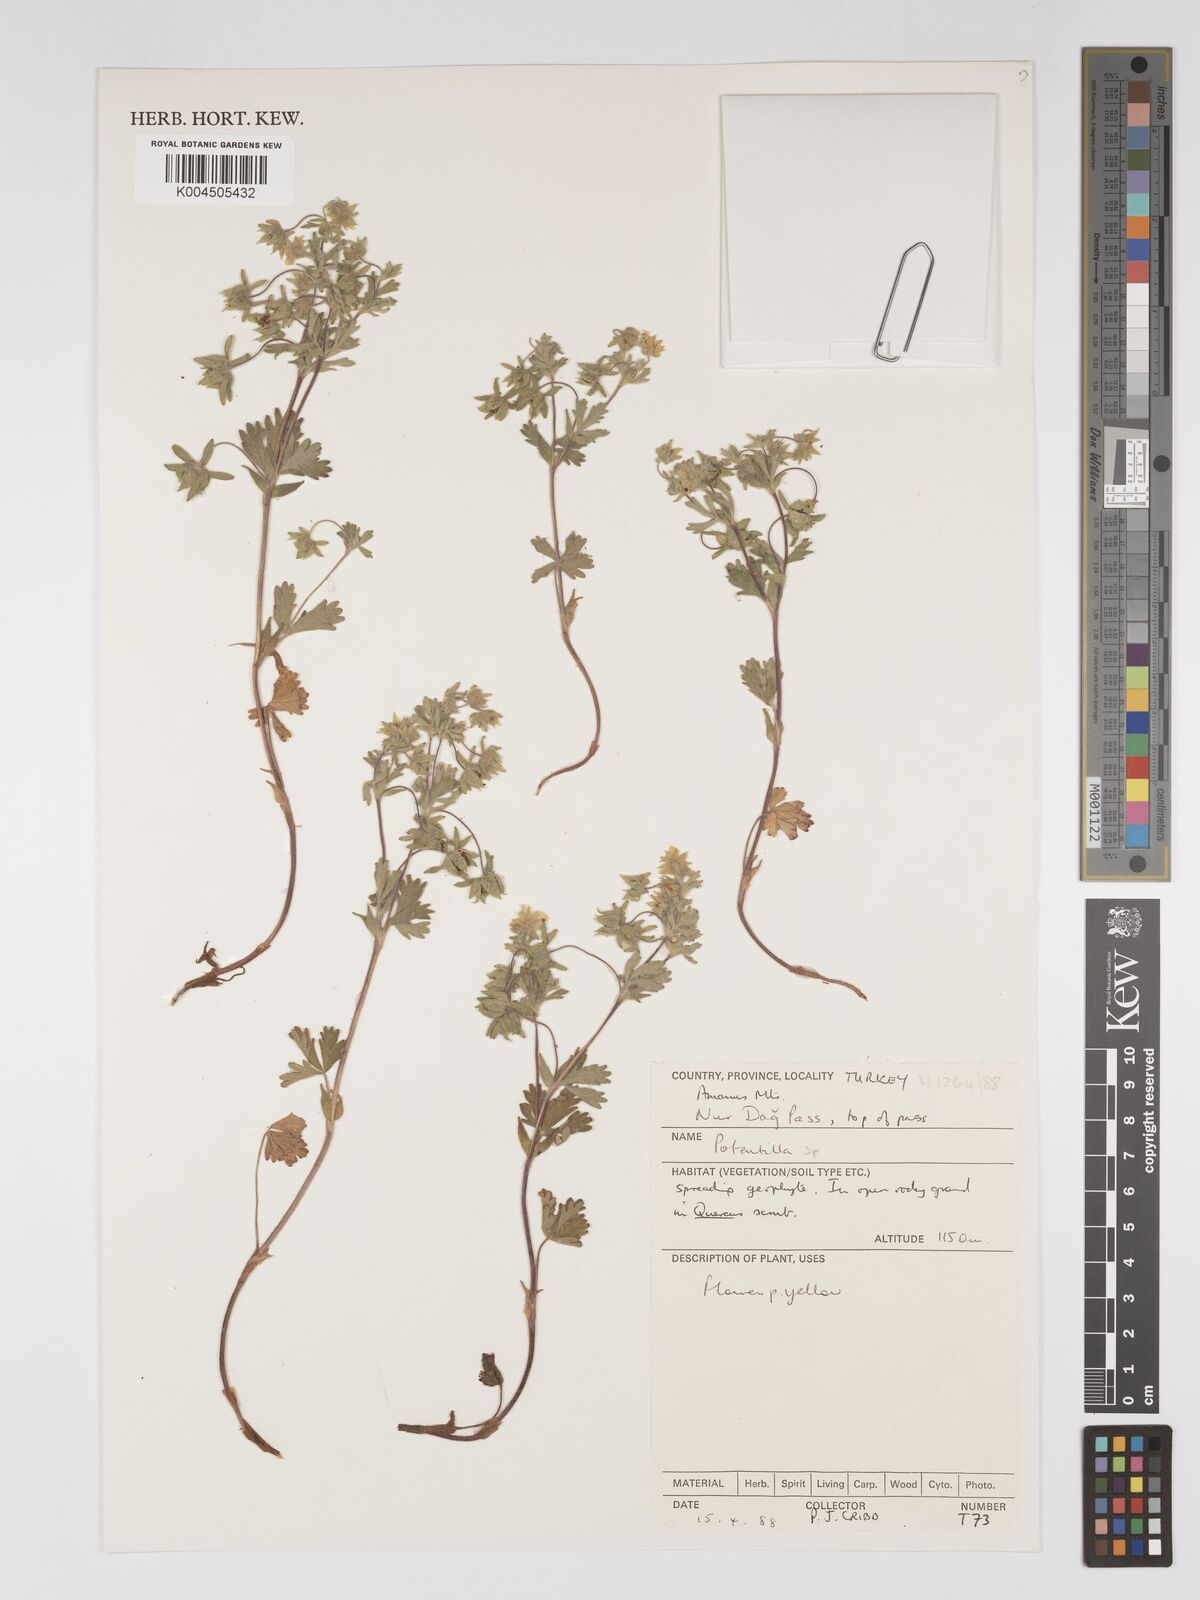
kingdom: Plantae
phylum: Tracheophyta
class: Magnoliopsida
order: Rosales
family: Rosaceae
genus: Potentilla
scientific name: Potentilla
